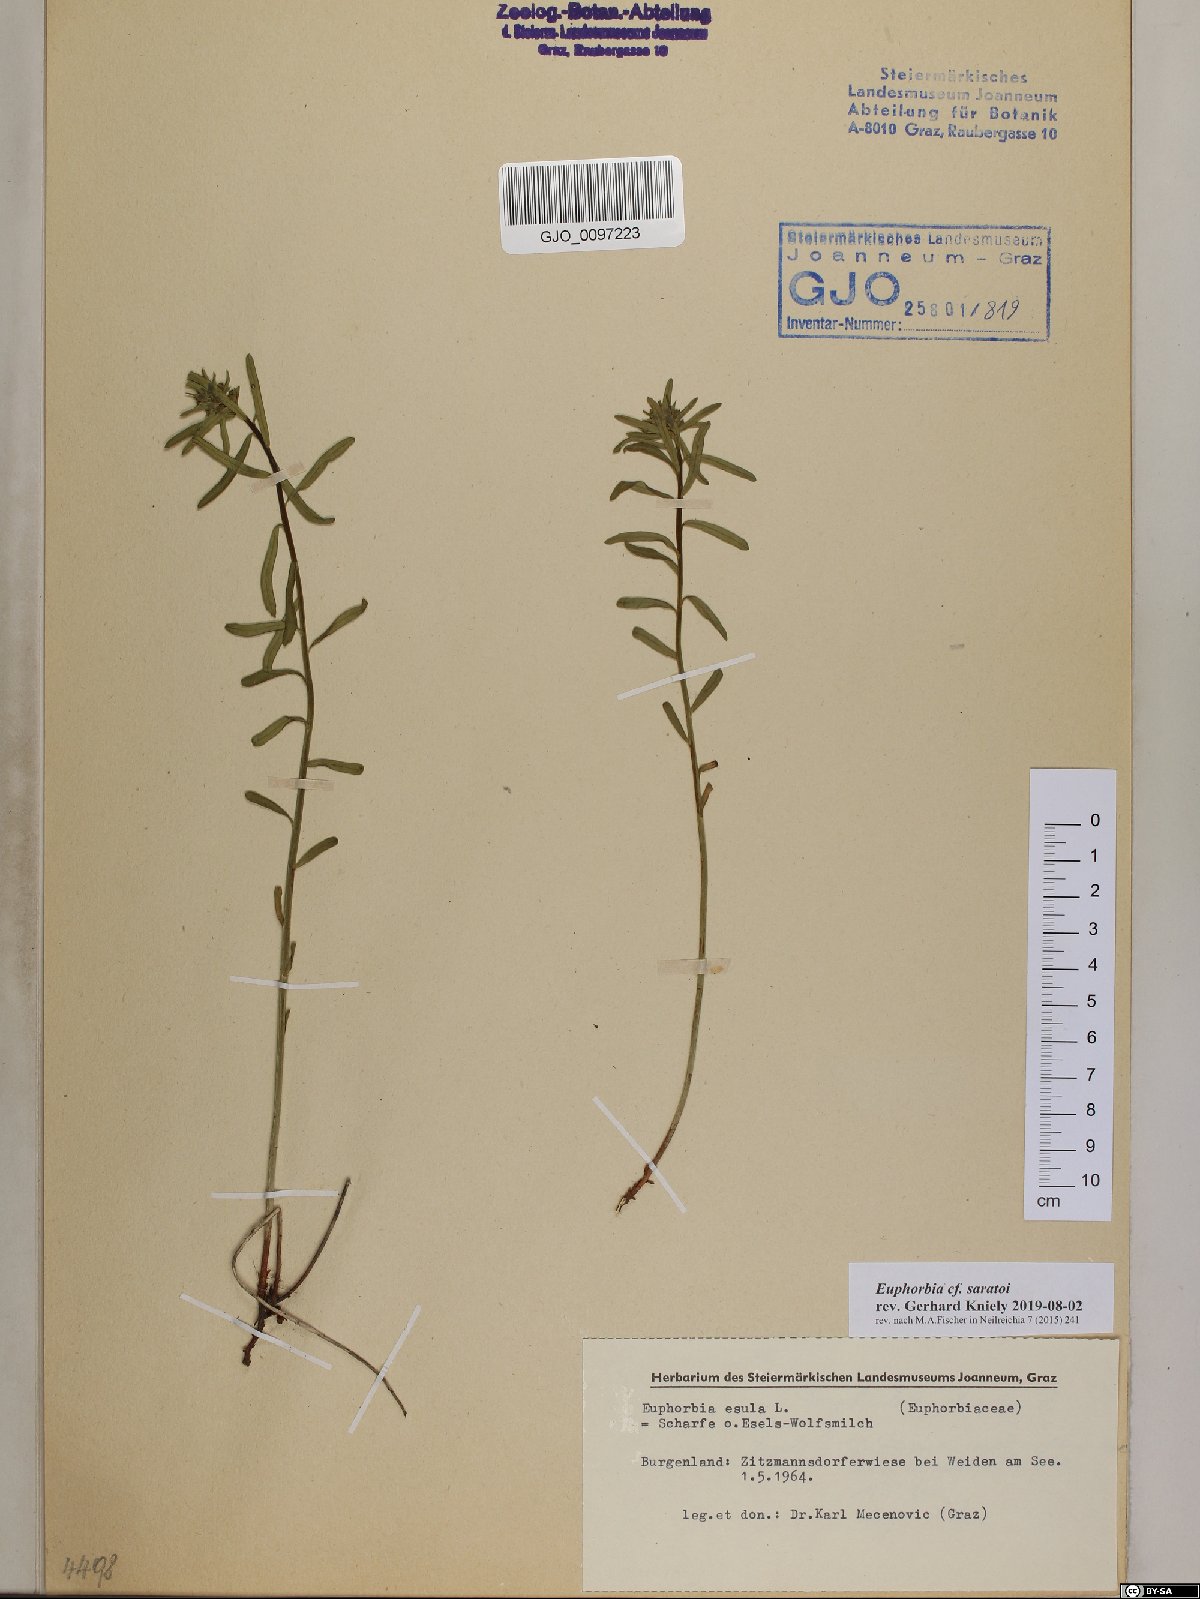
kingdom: Plantae
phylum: Tracheophyta
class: Magnoliopsida
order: Malpighiales
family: Euphorbiaceae
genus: Euphorbia
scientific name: Euphorbia saratoi
